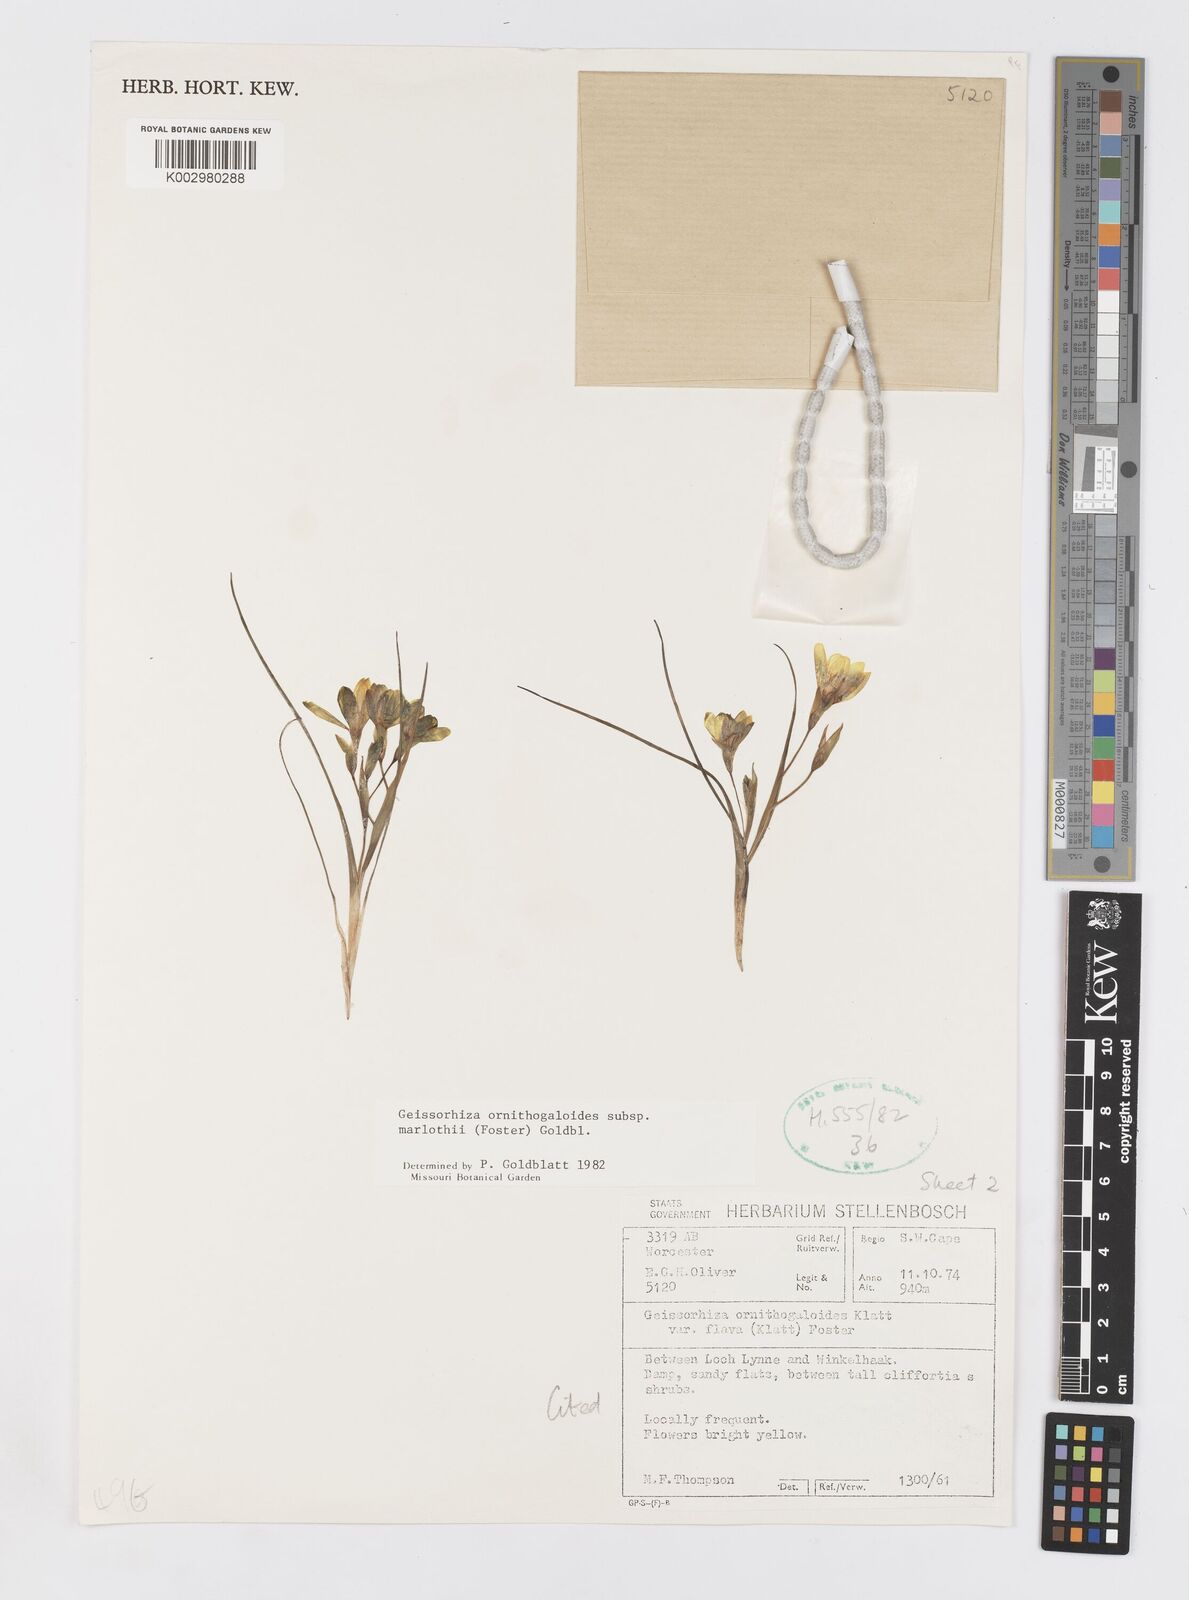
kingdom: Plantae
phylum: Tracheophyta
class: Liliopsida
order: Asparagales
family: Iridaceae
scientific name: Iridaceae
